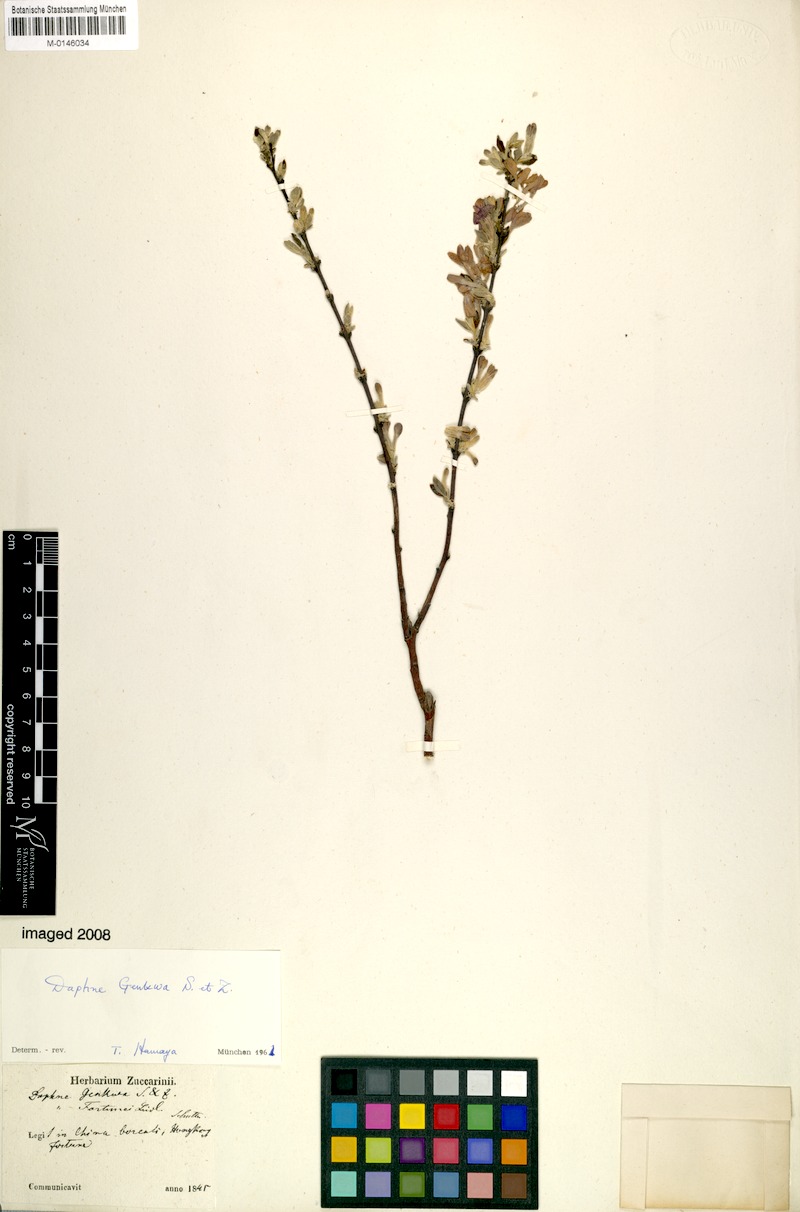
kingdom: Plantae
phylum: Tracheophyta
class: Magnoliopsida
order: Malvales
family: Thymelaeaceae
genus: Wikstroemia
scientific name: Wikstroemia genkwa
